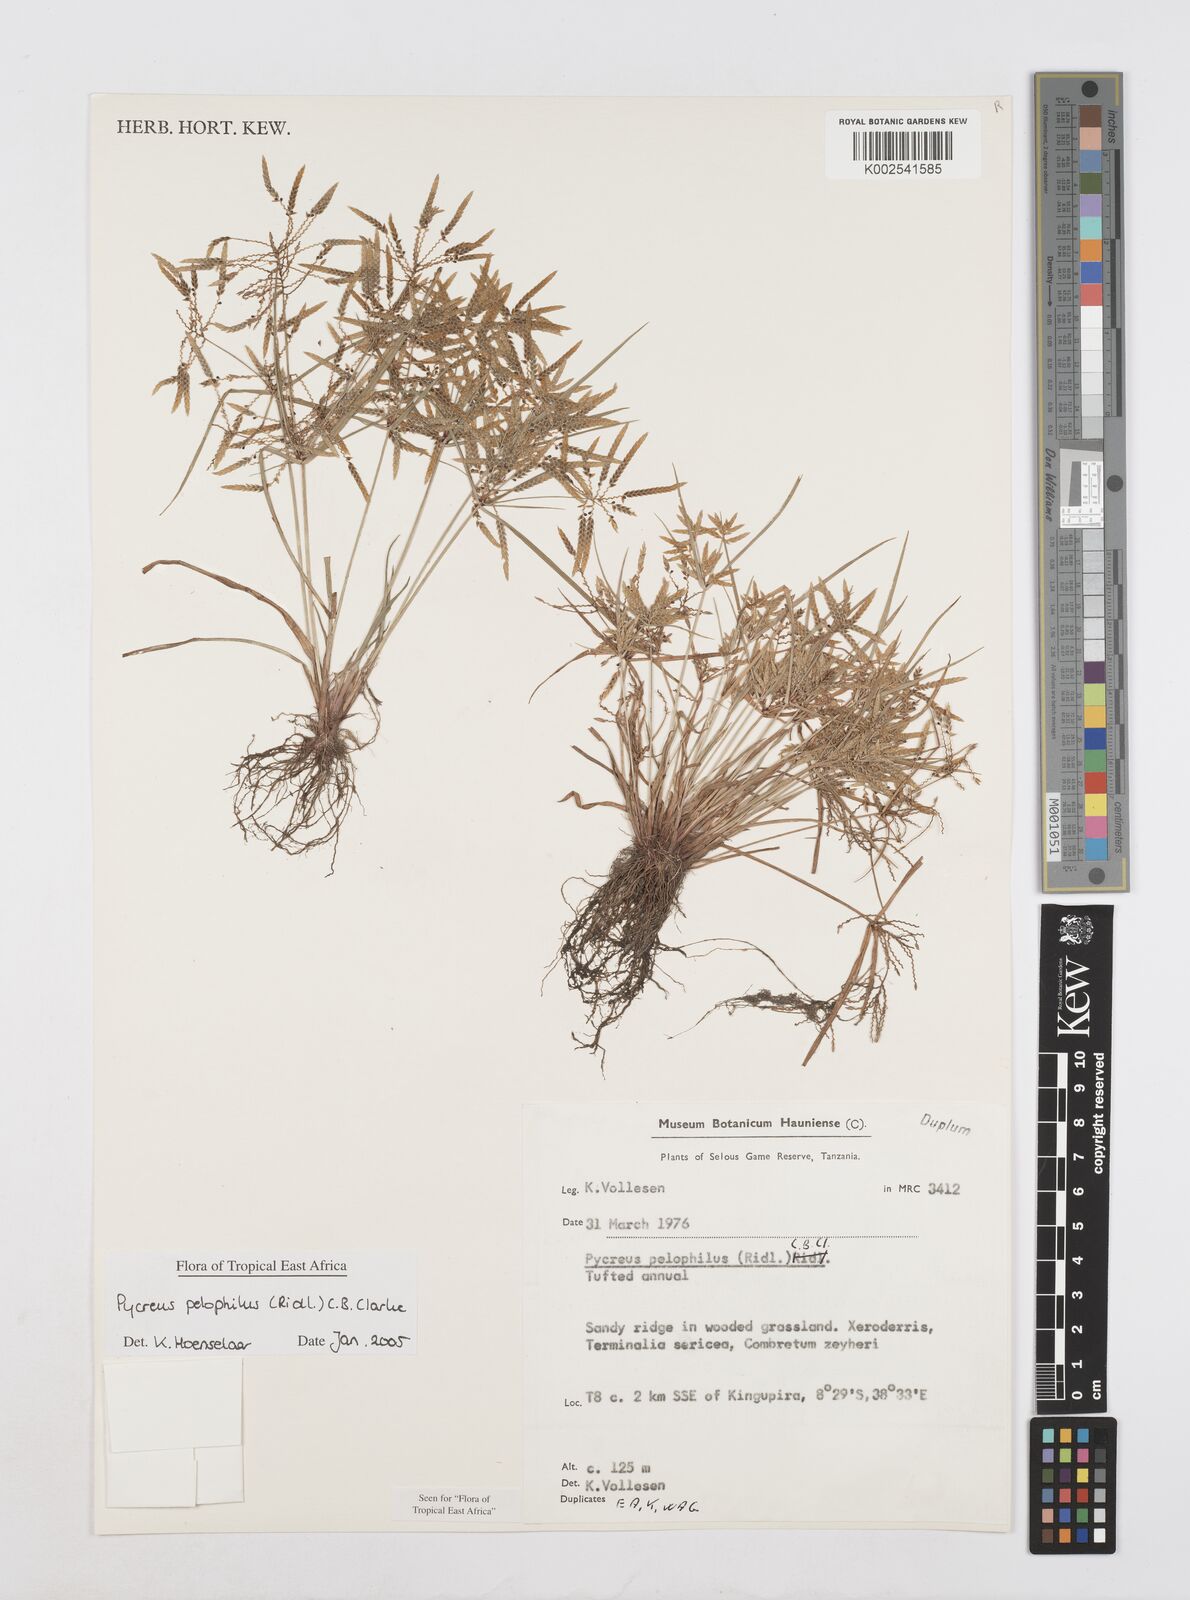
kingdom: Plantae
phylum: Tracheophyta
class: Liliopsida
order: Poales
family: Cyperaceae
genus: Cyperus
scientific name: Cyperus pelophilus
